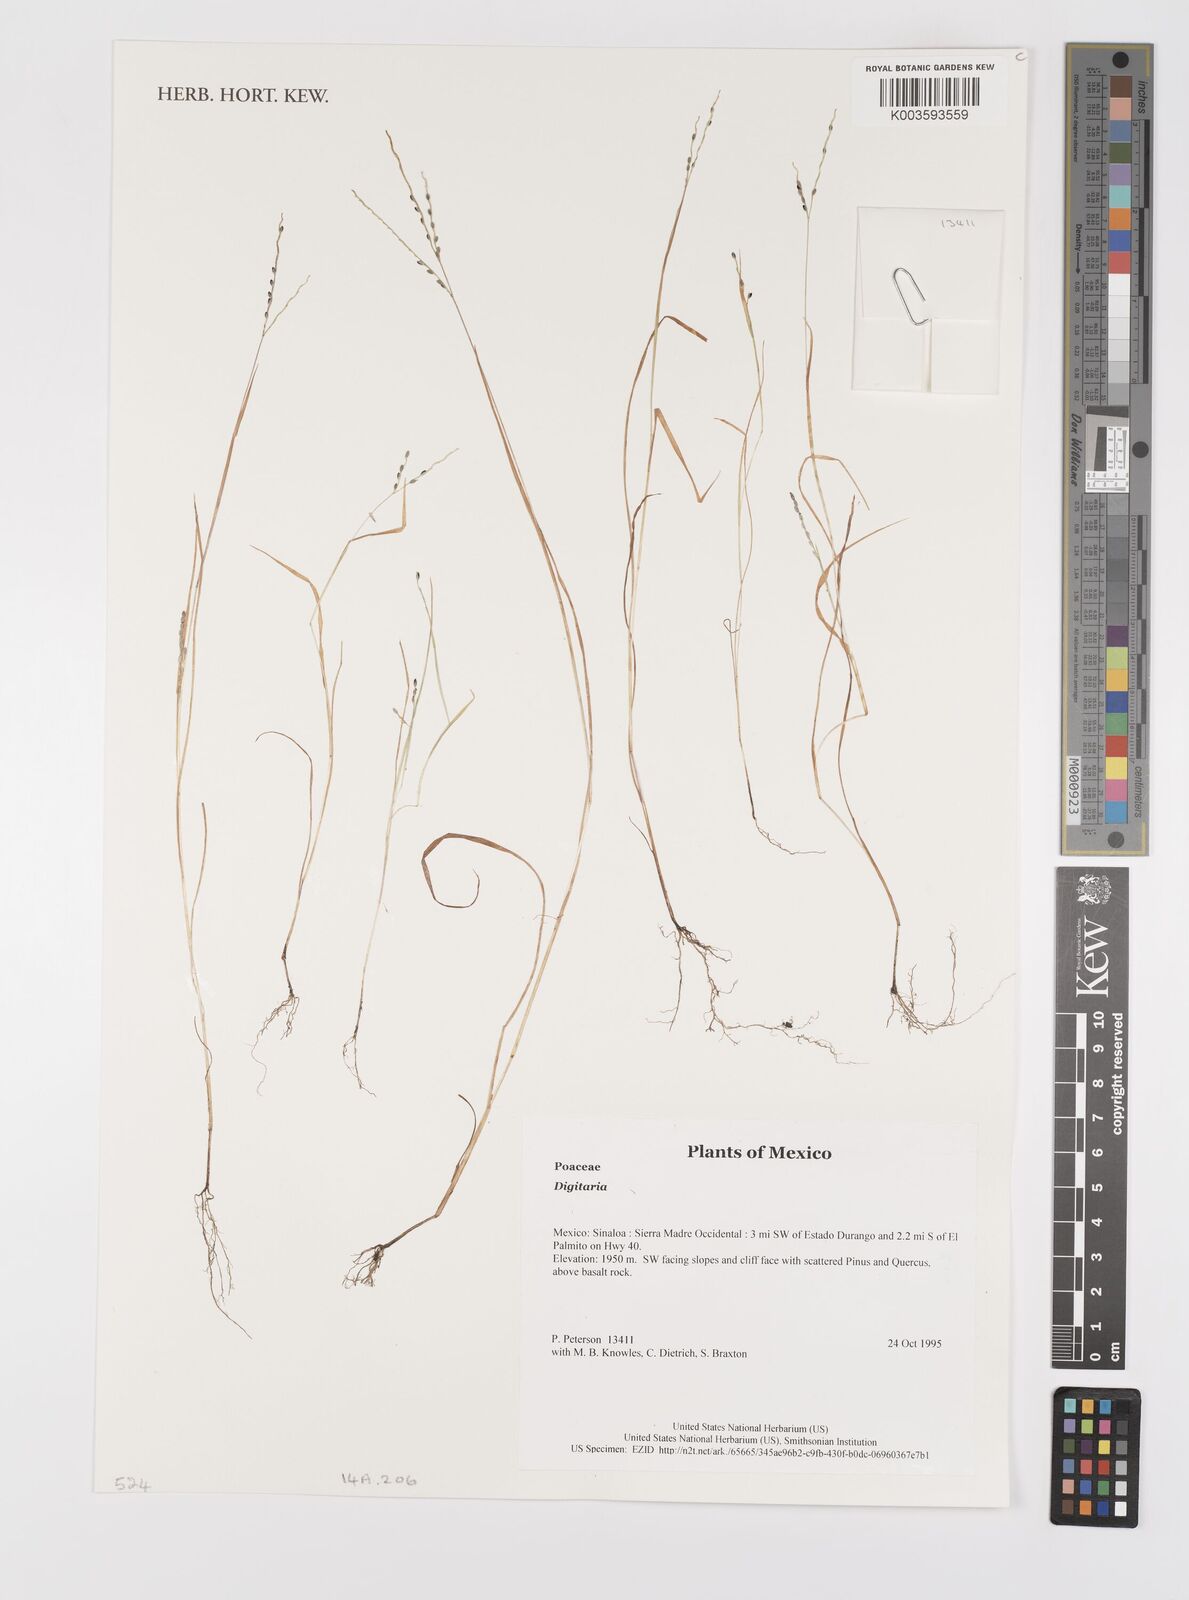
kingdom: Plantae
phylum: Tracheophyta
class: Liliopsida
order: Poales
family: Poaceae
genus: Digitaria
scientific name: Digitaria spec
